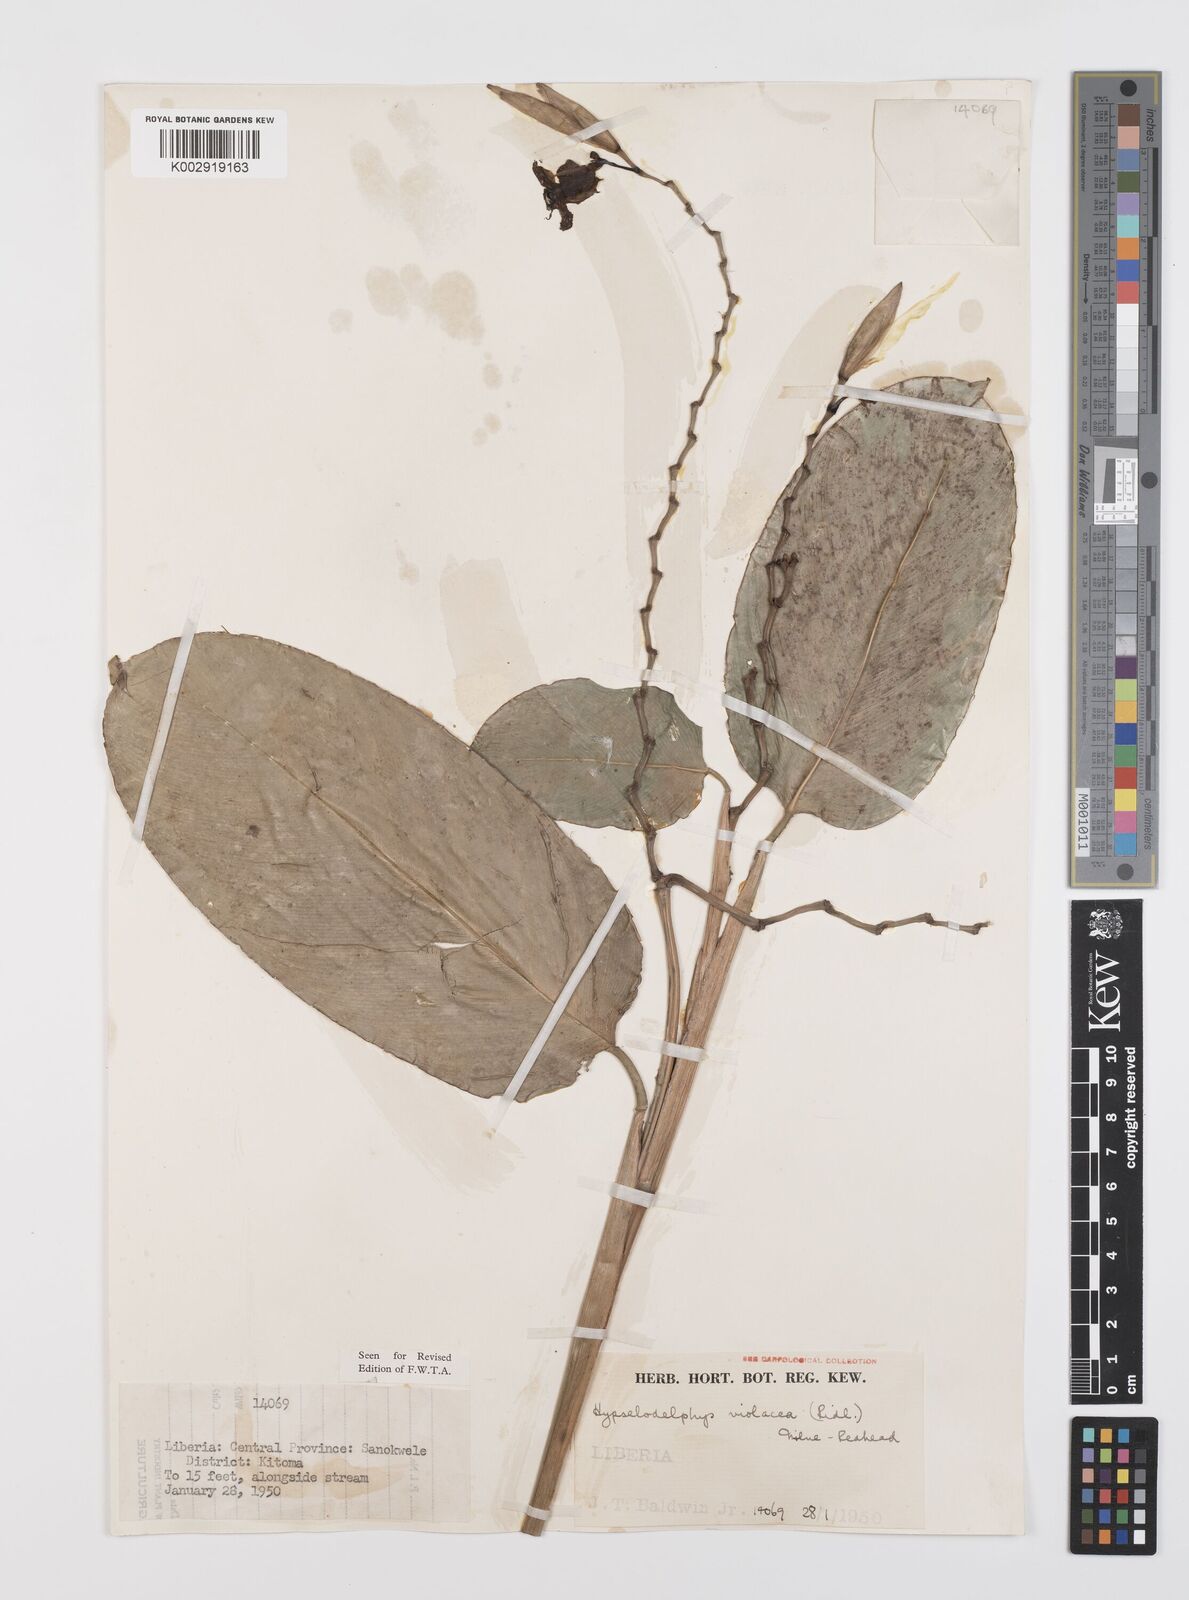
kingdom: Plantae
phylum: Tracheophyta
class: Liliopsida
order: Zingiberales
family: Marantaceae
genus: Hypselodelphys
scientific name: Hypselodelphys violacea
